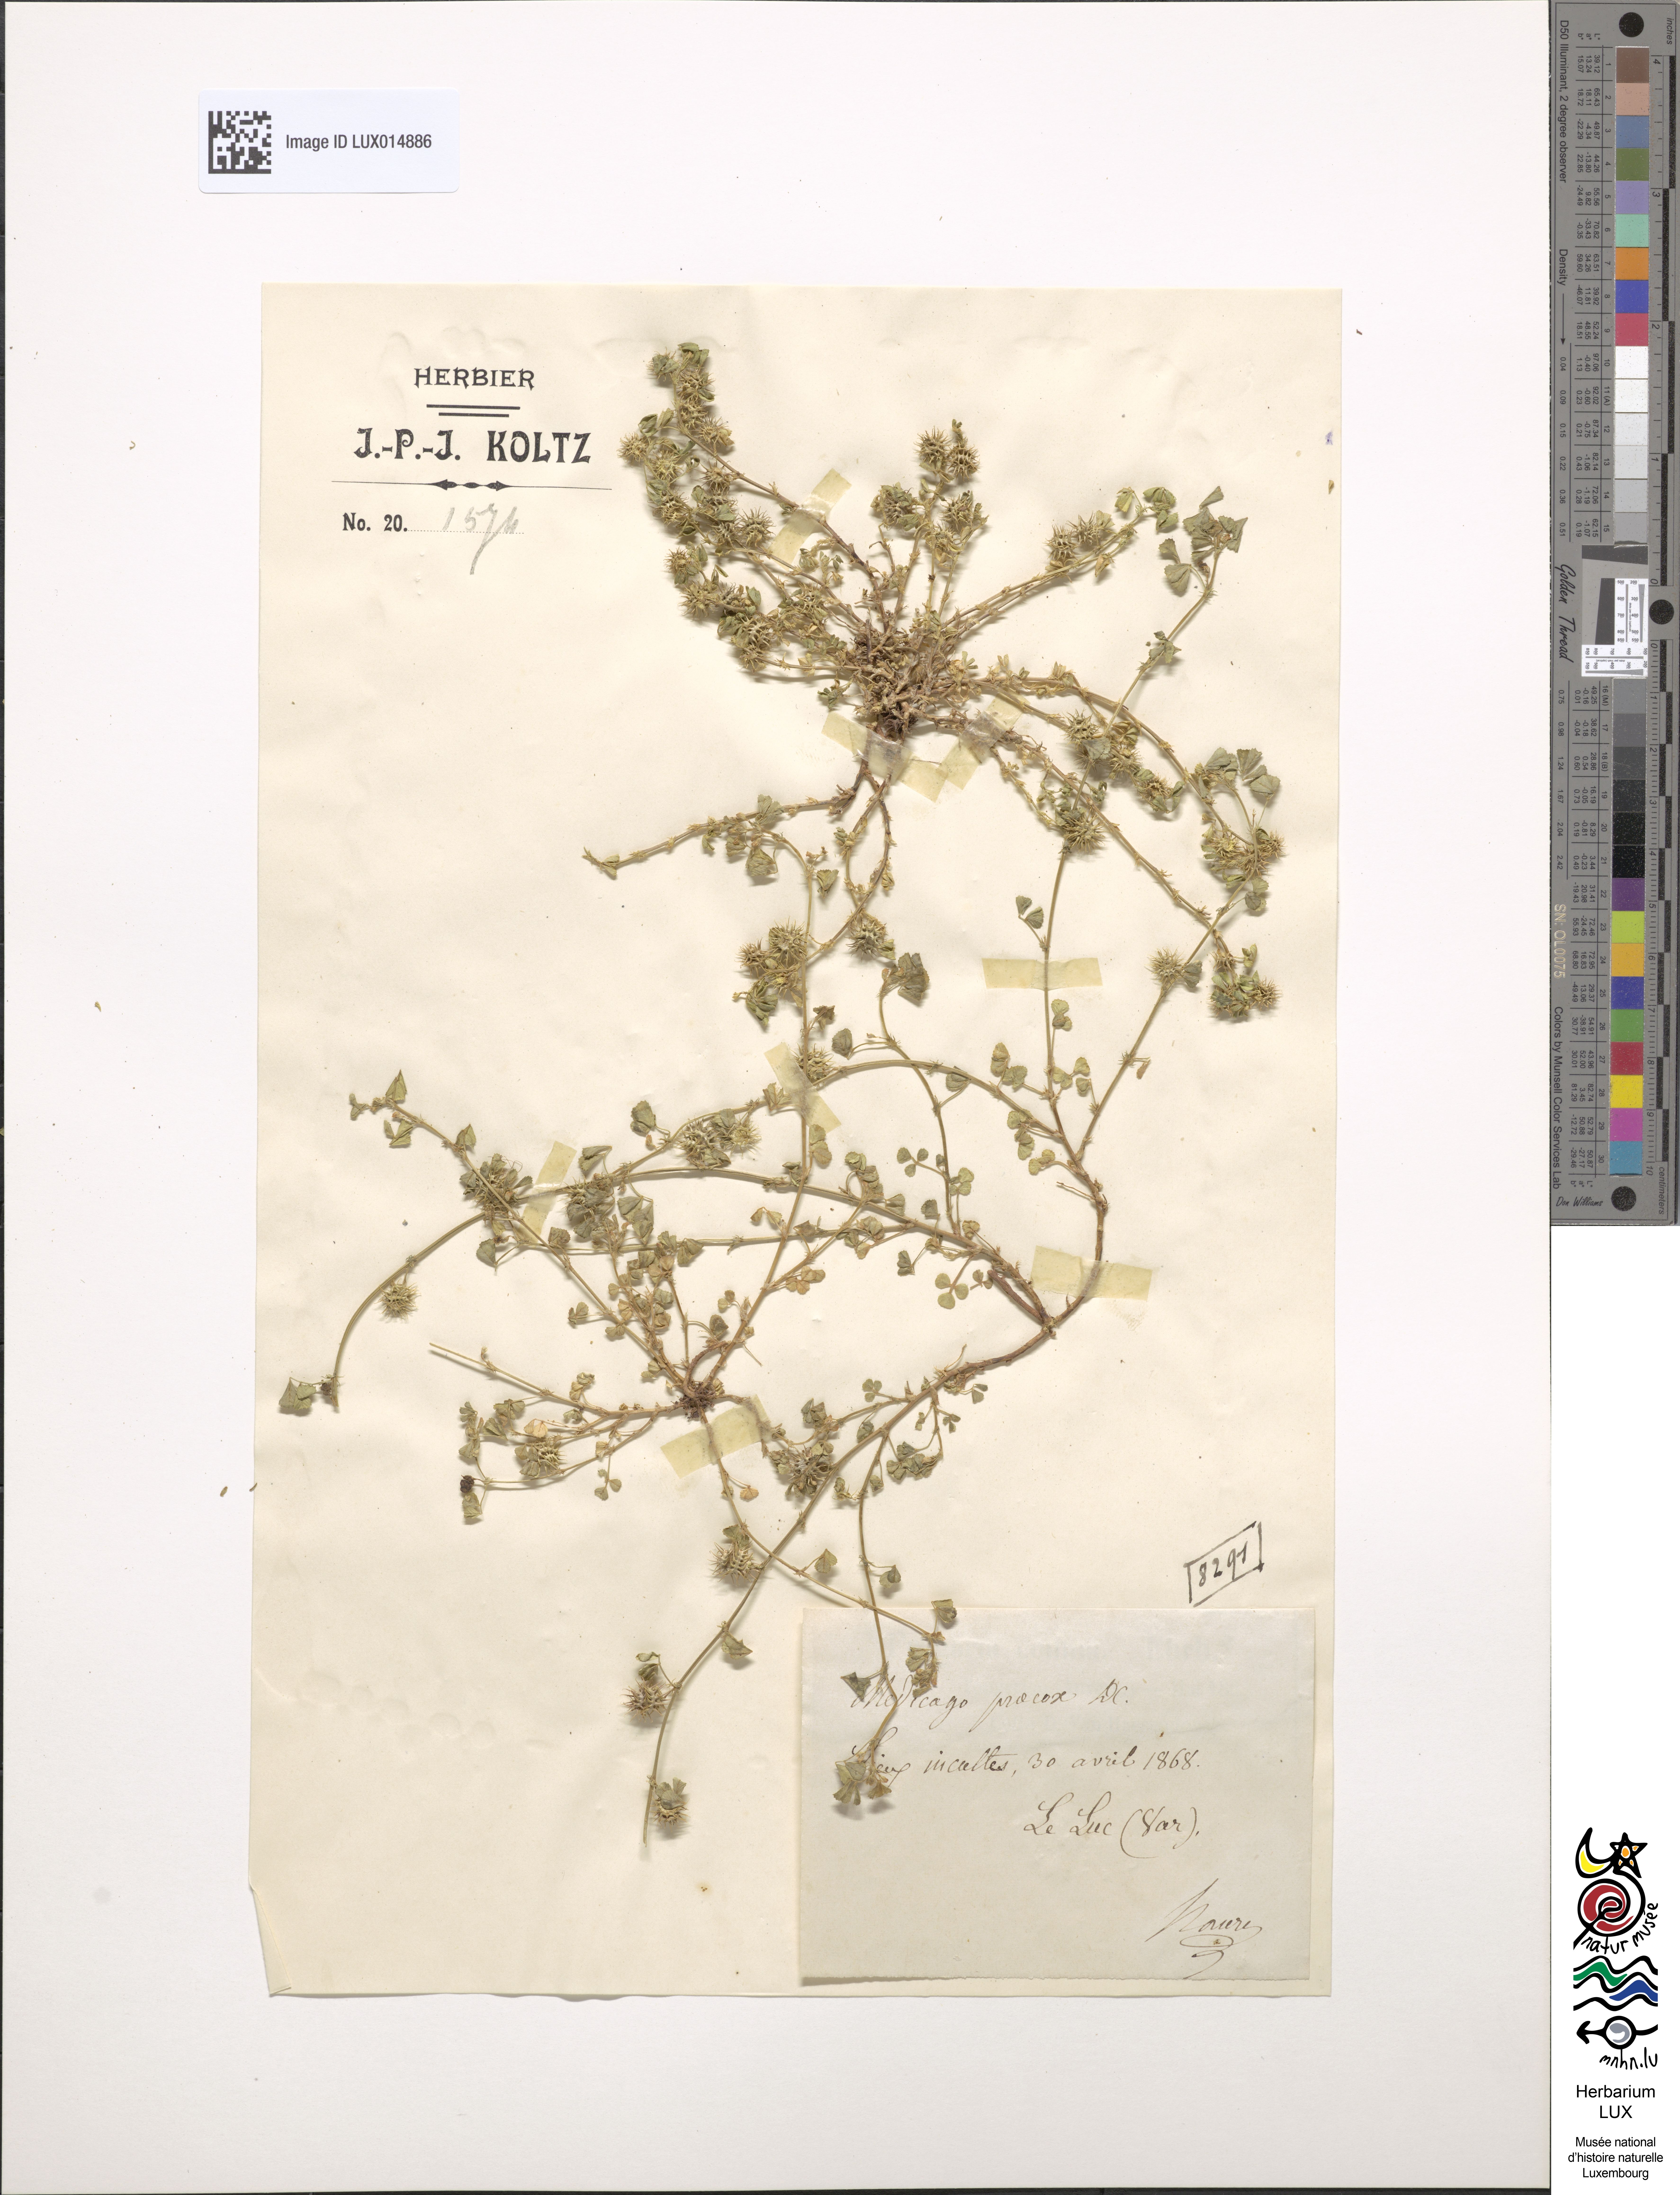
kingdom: Plantae
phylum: Tracheophyta
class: Magnoliopsida
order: Fabales
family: Fabaceae
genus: Medicago
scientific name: Medicago praecox
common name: Early medick
